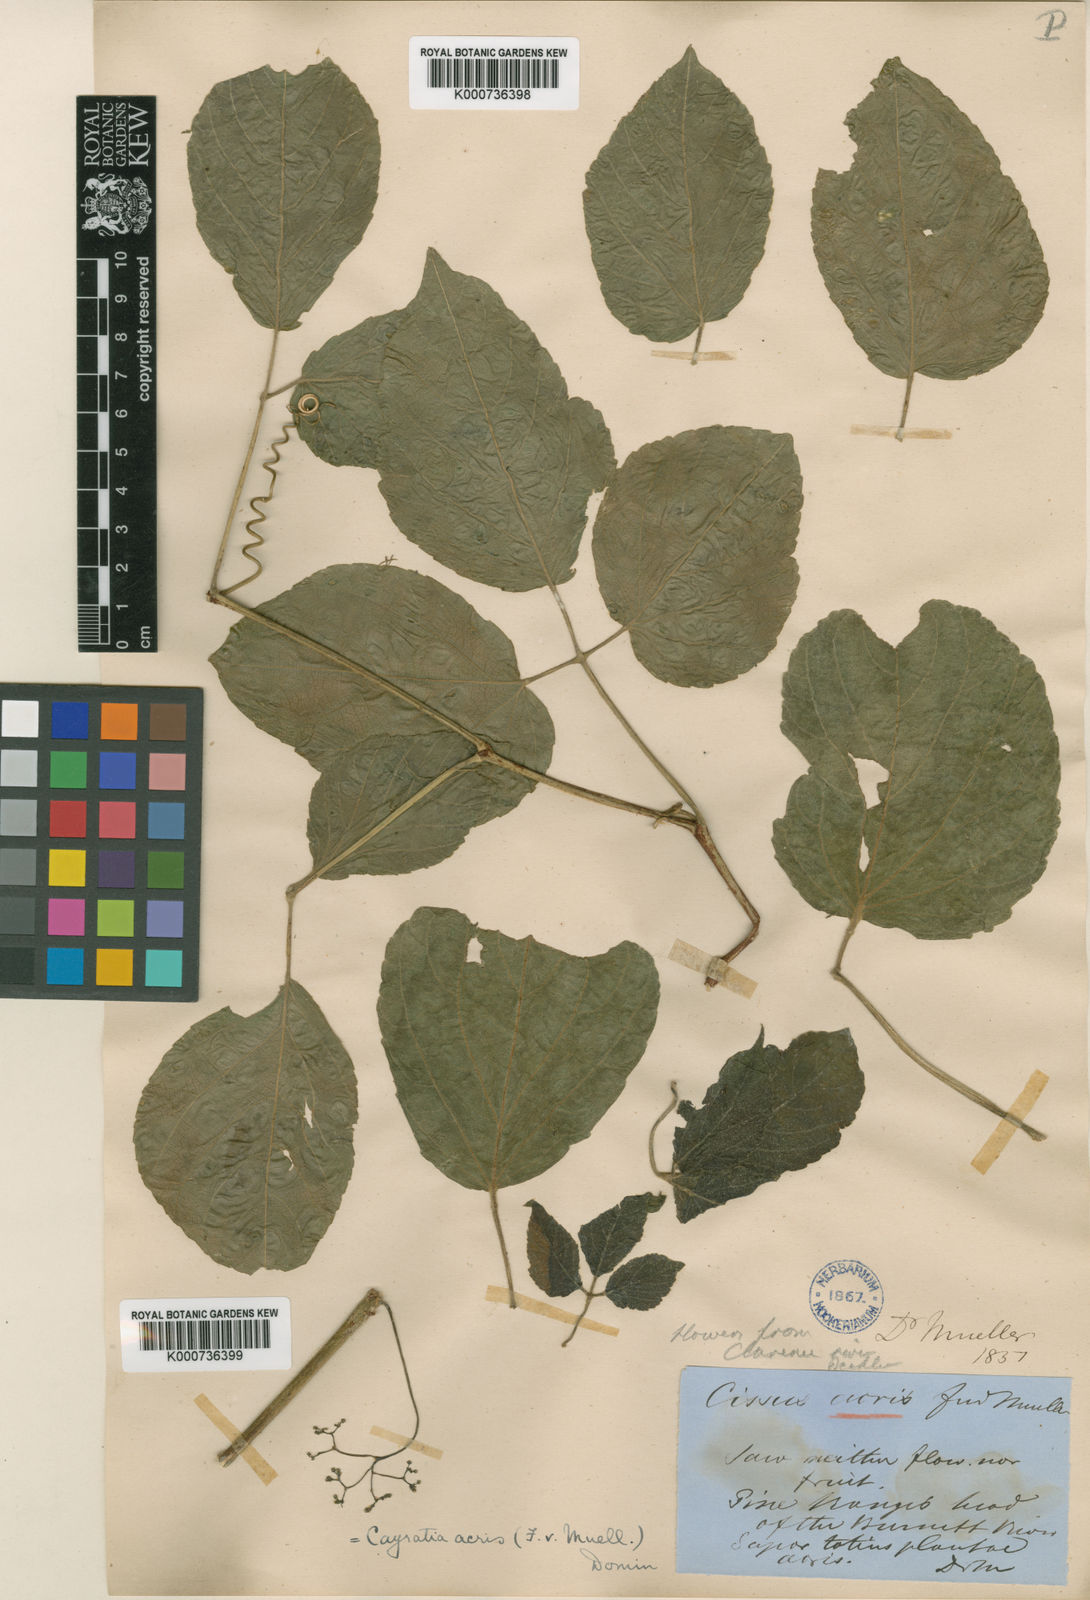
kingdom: Plantae
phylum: Tracheophyta
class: Magnoliopsida
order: Vitales
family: Vitaceae
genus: Cayratia
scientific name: Cayratia acris
